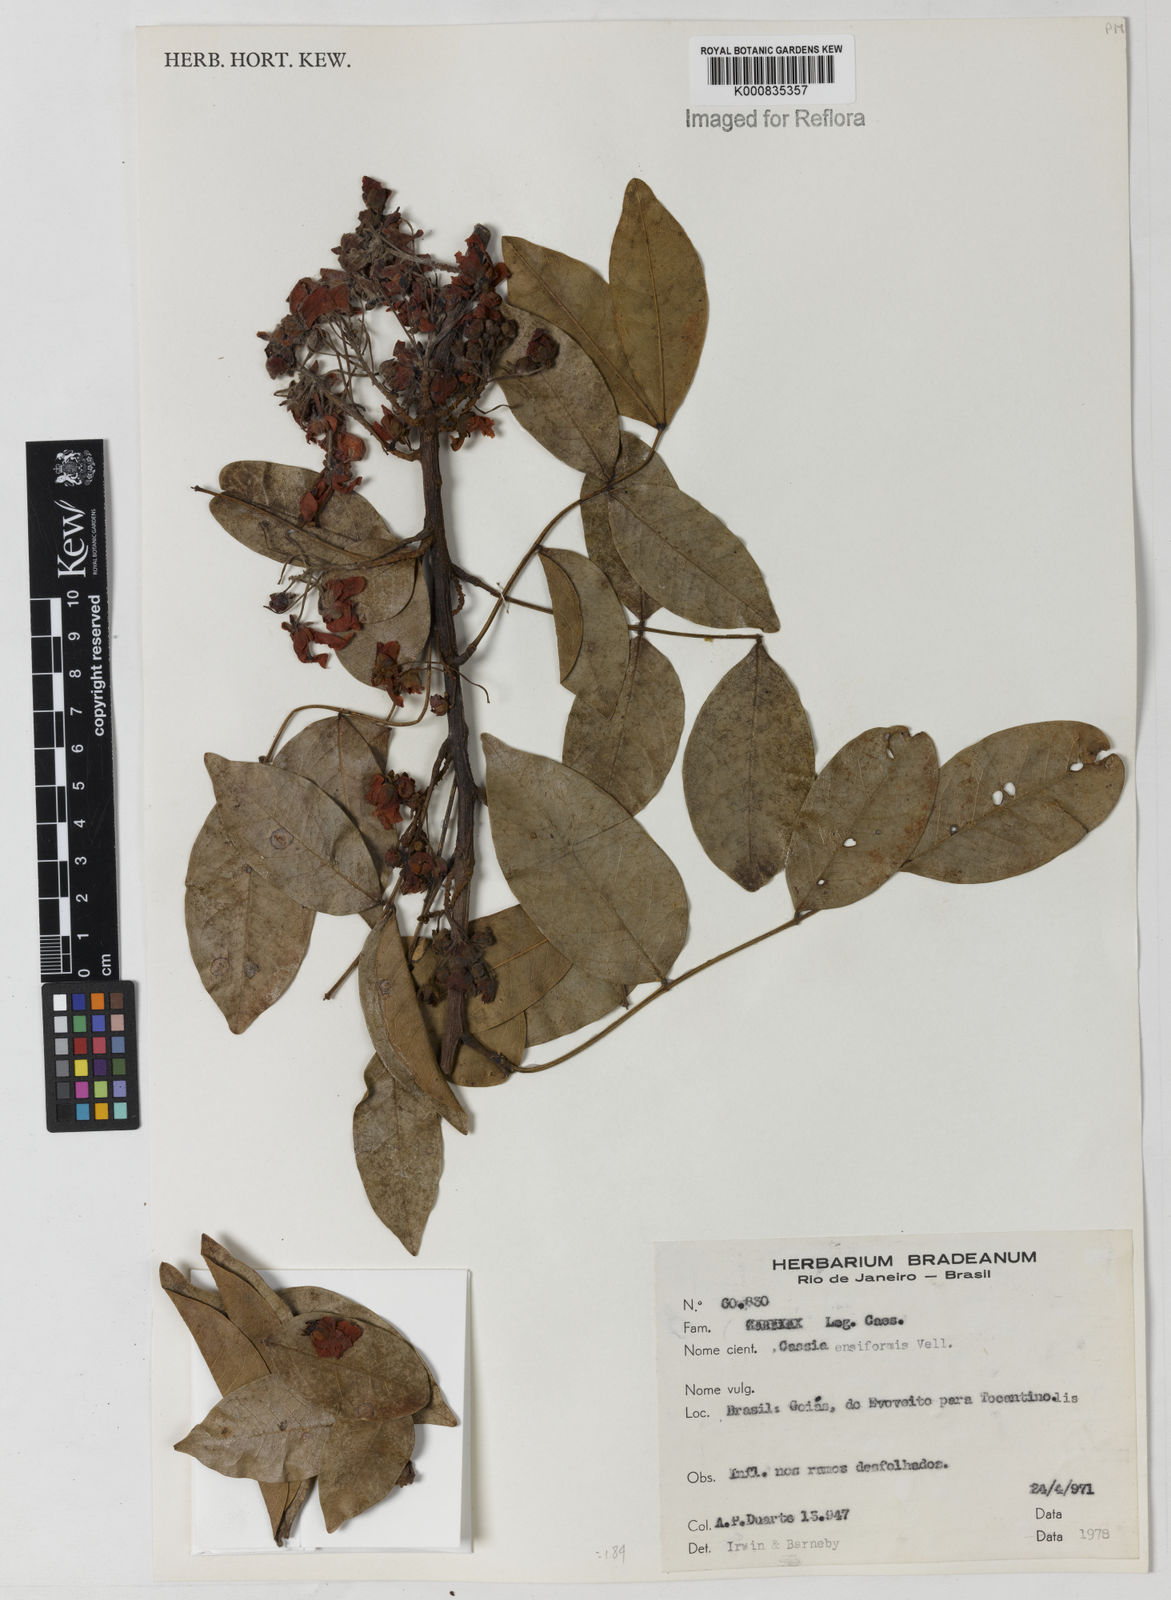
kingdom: Plantae
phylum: Tracheophyta
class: Magnoliopsida
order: Fabales
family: Fabaceae
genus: Chamaecrista
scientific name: Chamaecrista ensiformis
